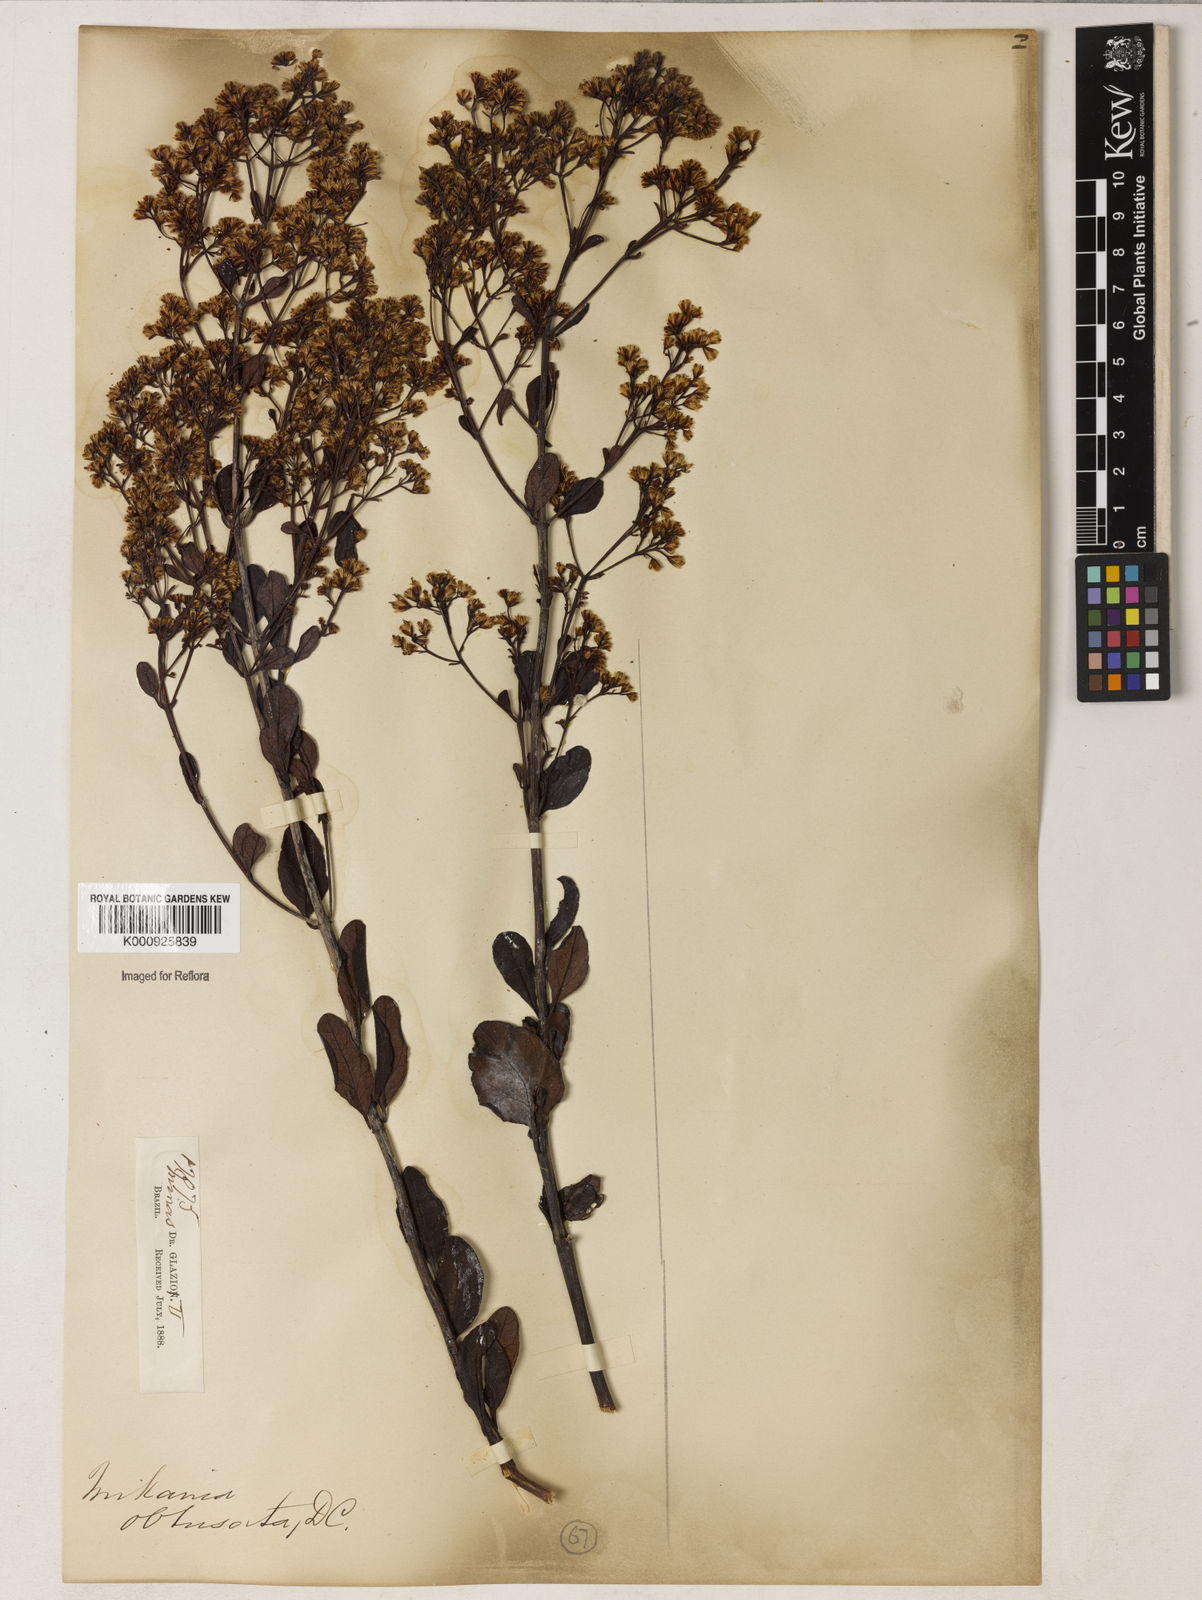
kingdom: Plantae
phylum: Tracheophyta
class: Magnoliopsida
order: Asterales
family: Asteraceae
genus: Mikania
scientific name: Mikania obtusata
